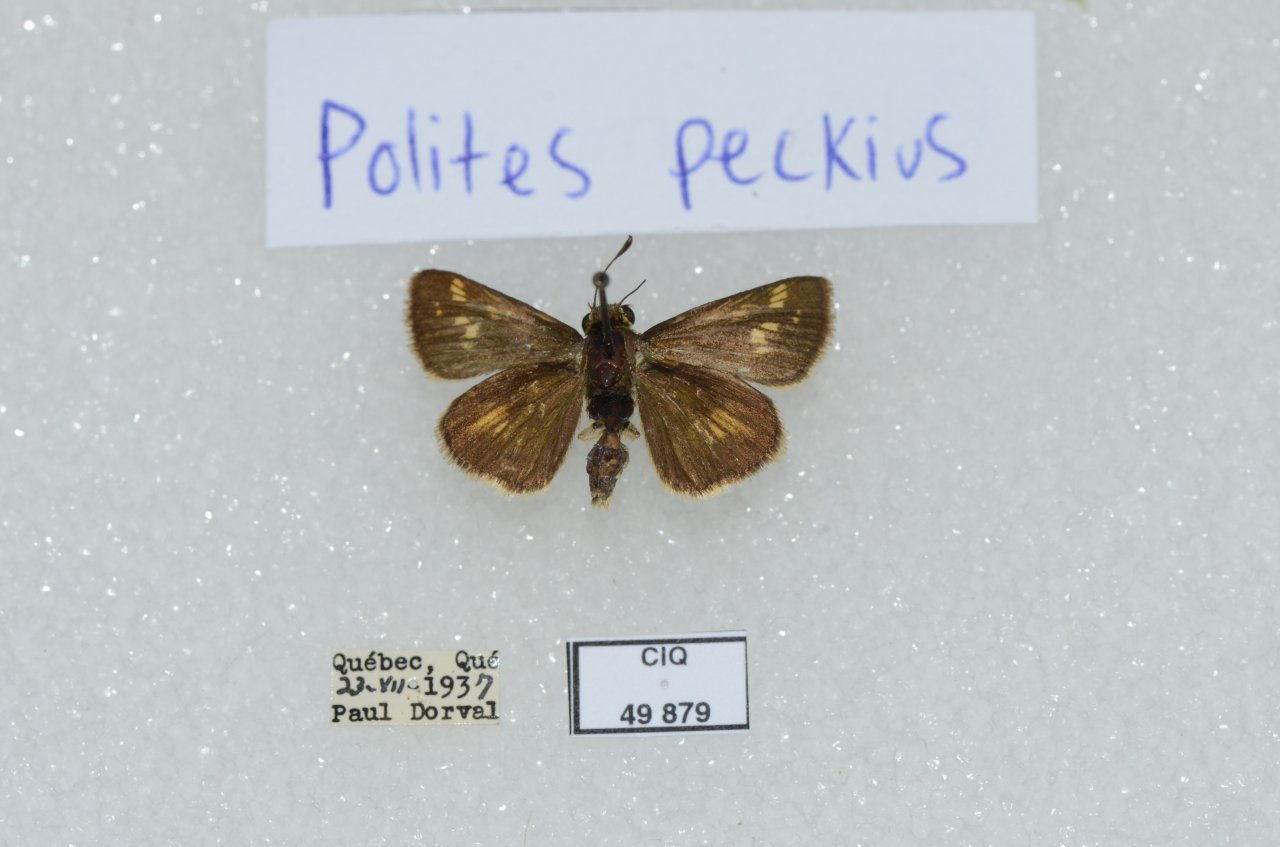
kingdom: Animalia
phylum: Arthropoda
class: Insecta
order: Lepidoptera
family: Hesperiidae
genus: Polites
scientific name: Polites coras
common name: Peck's Skipper
